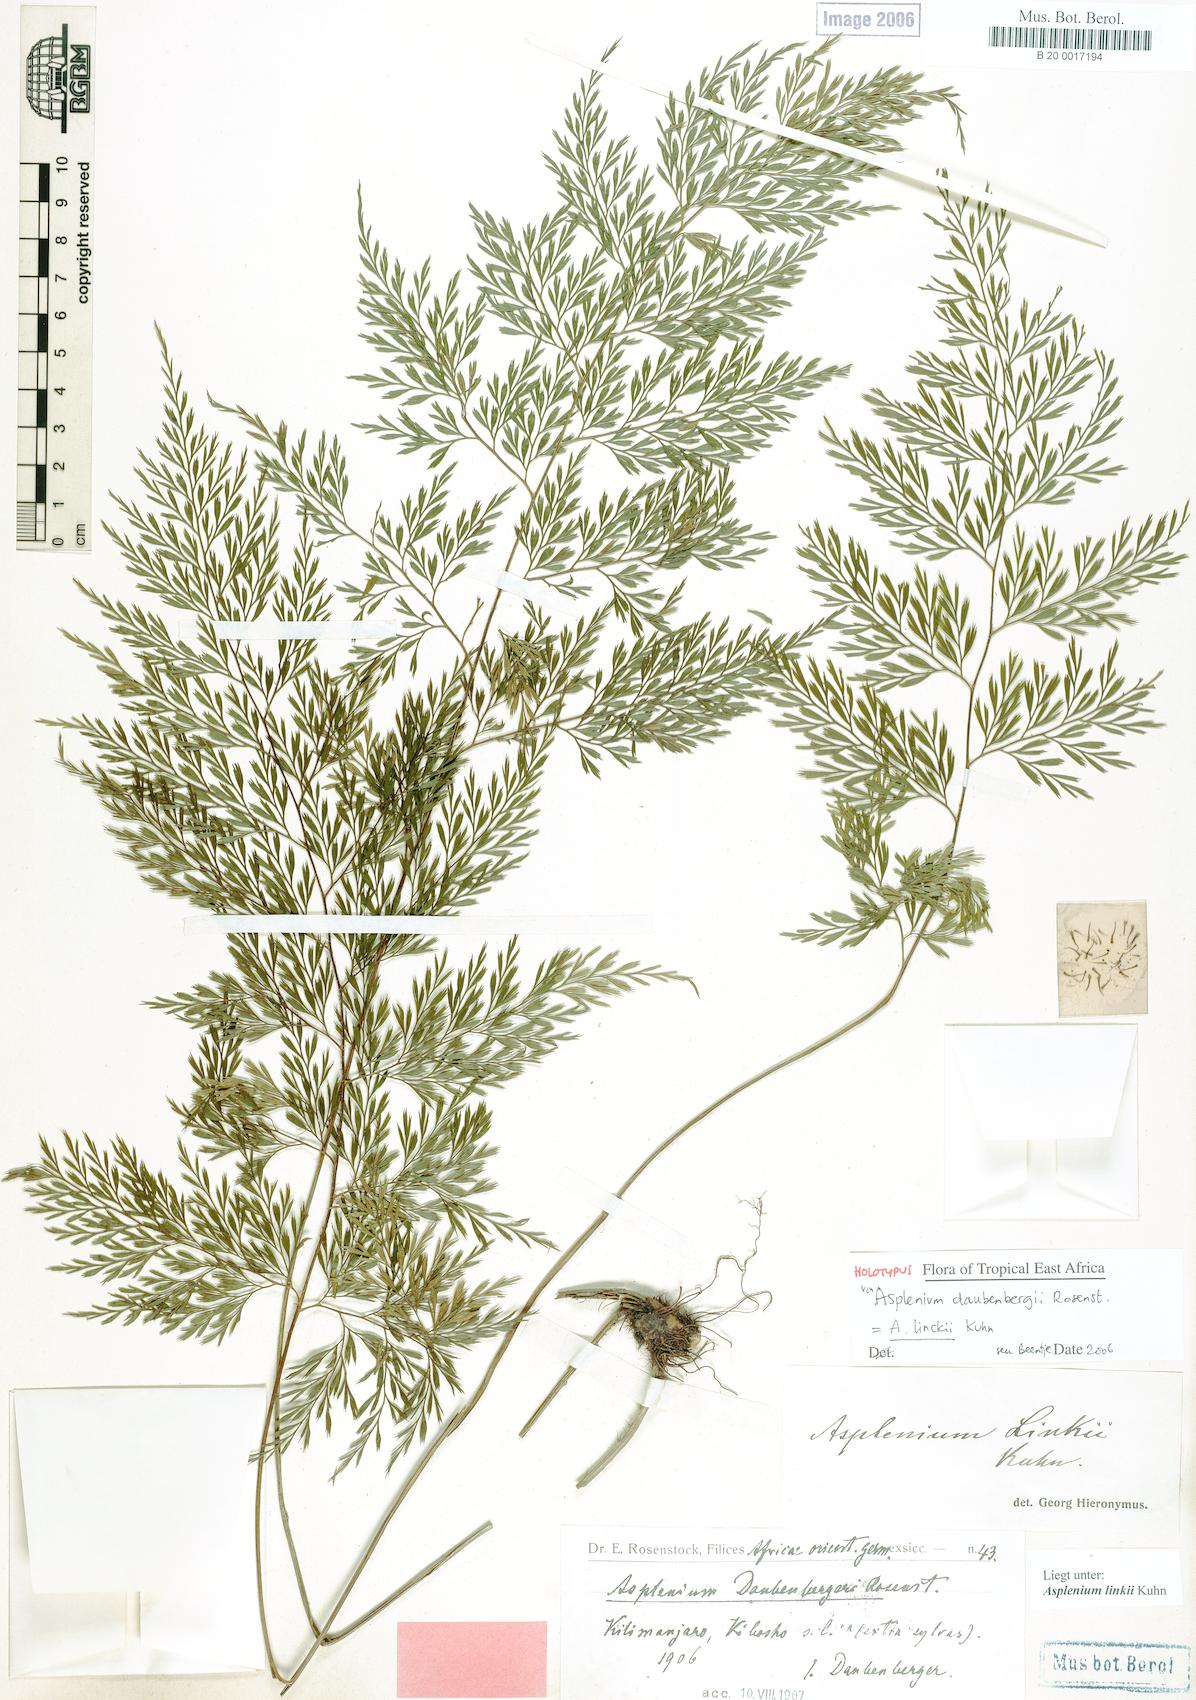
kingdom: Plantae
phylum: Tracheophyta
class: Polypodiopsida
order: Polypodiales
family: Aspleniaceae
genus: Asplenium
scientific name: Asplenium linckii
